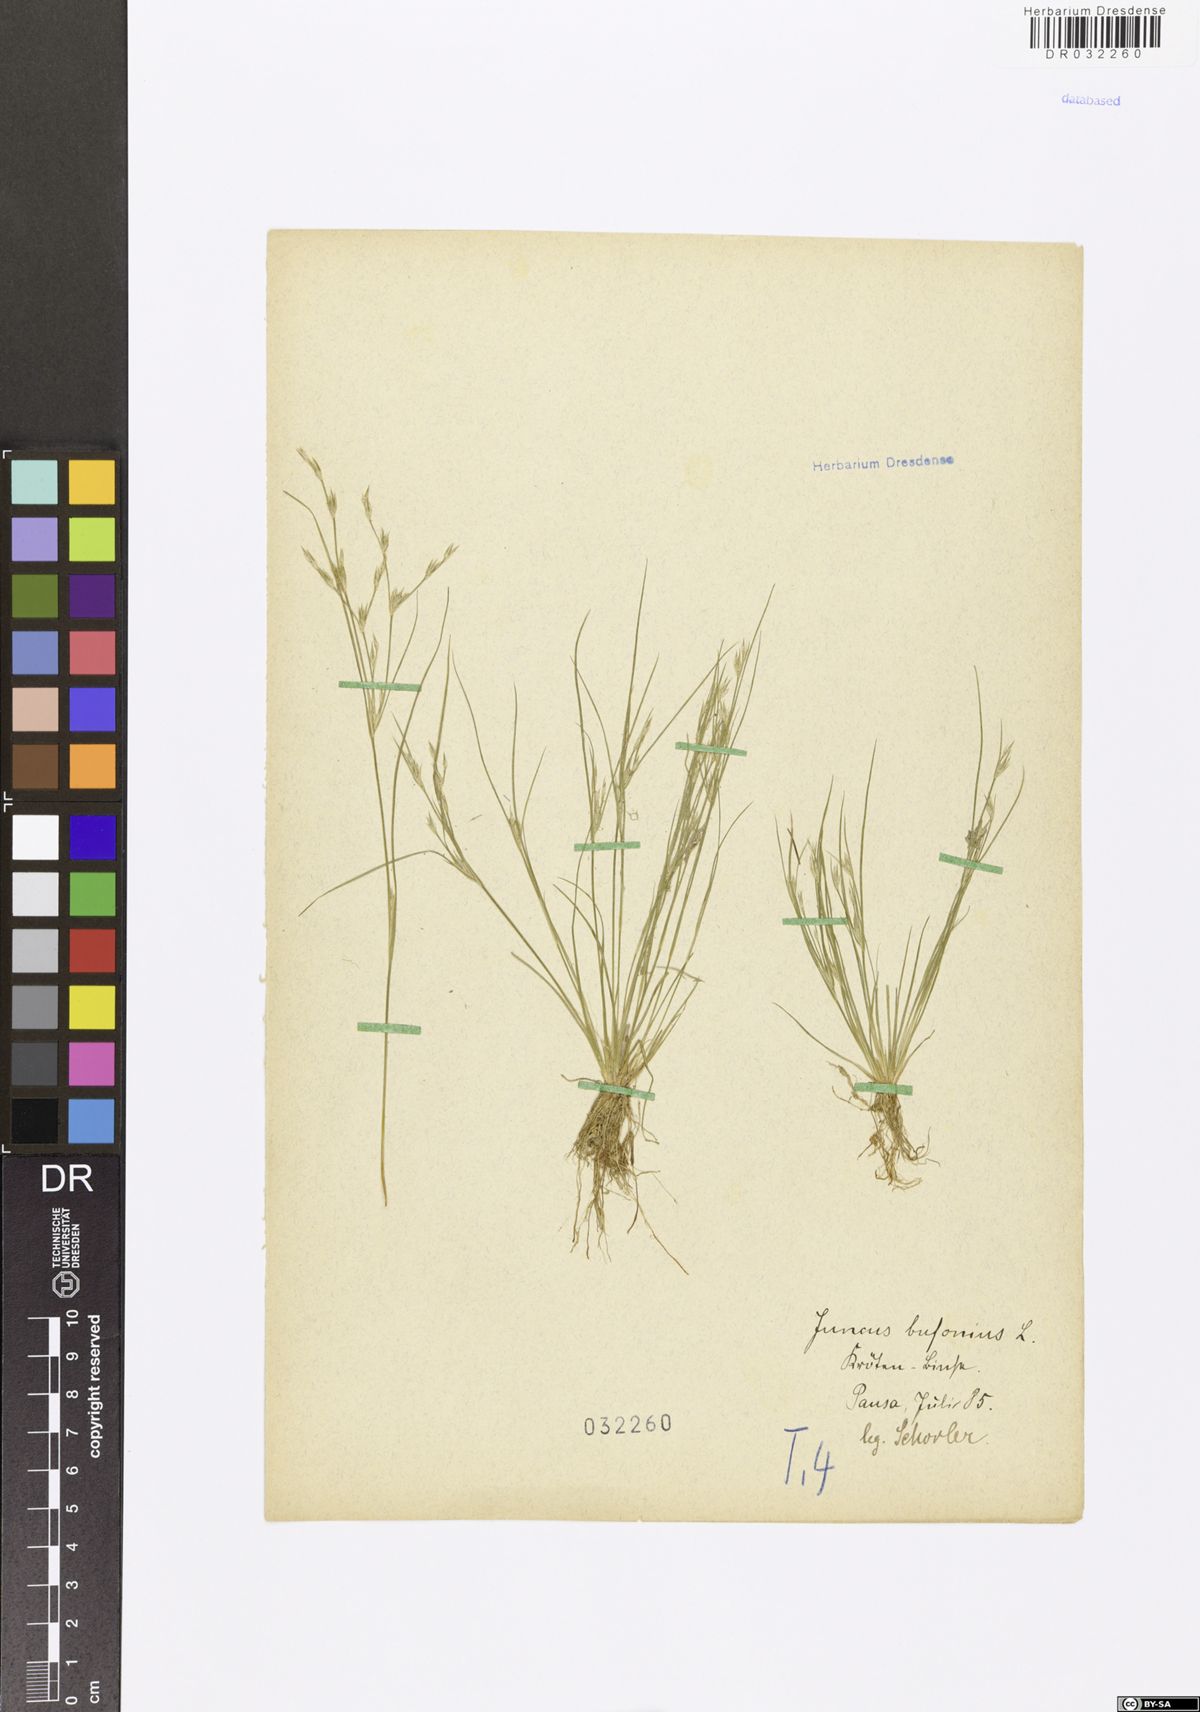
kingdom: Plantae
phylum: Tracheophyta
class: Liliopsida
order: Poales
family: Juncaceae
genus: Juncus
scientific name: Juncus bufonius
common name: Toad rush
